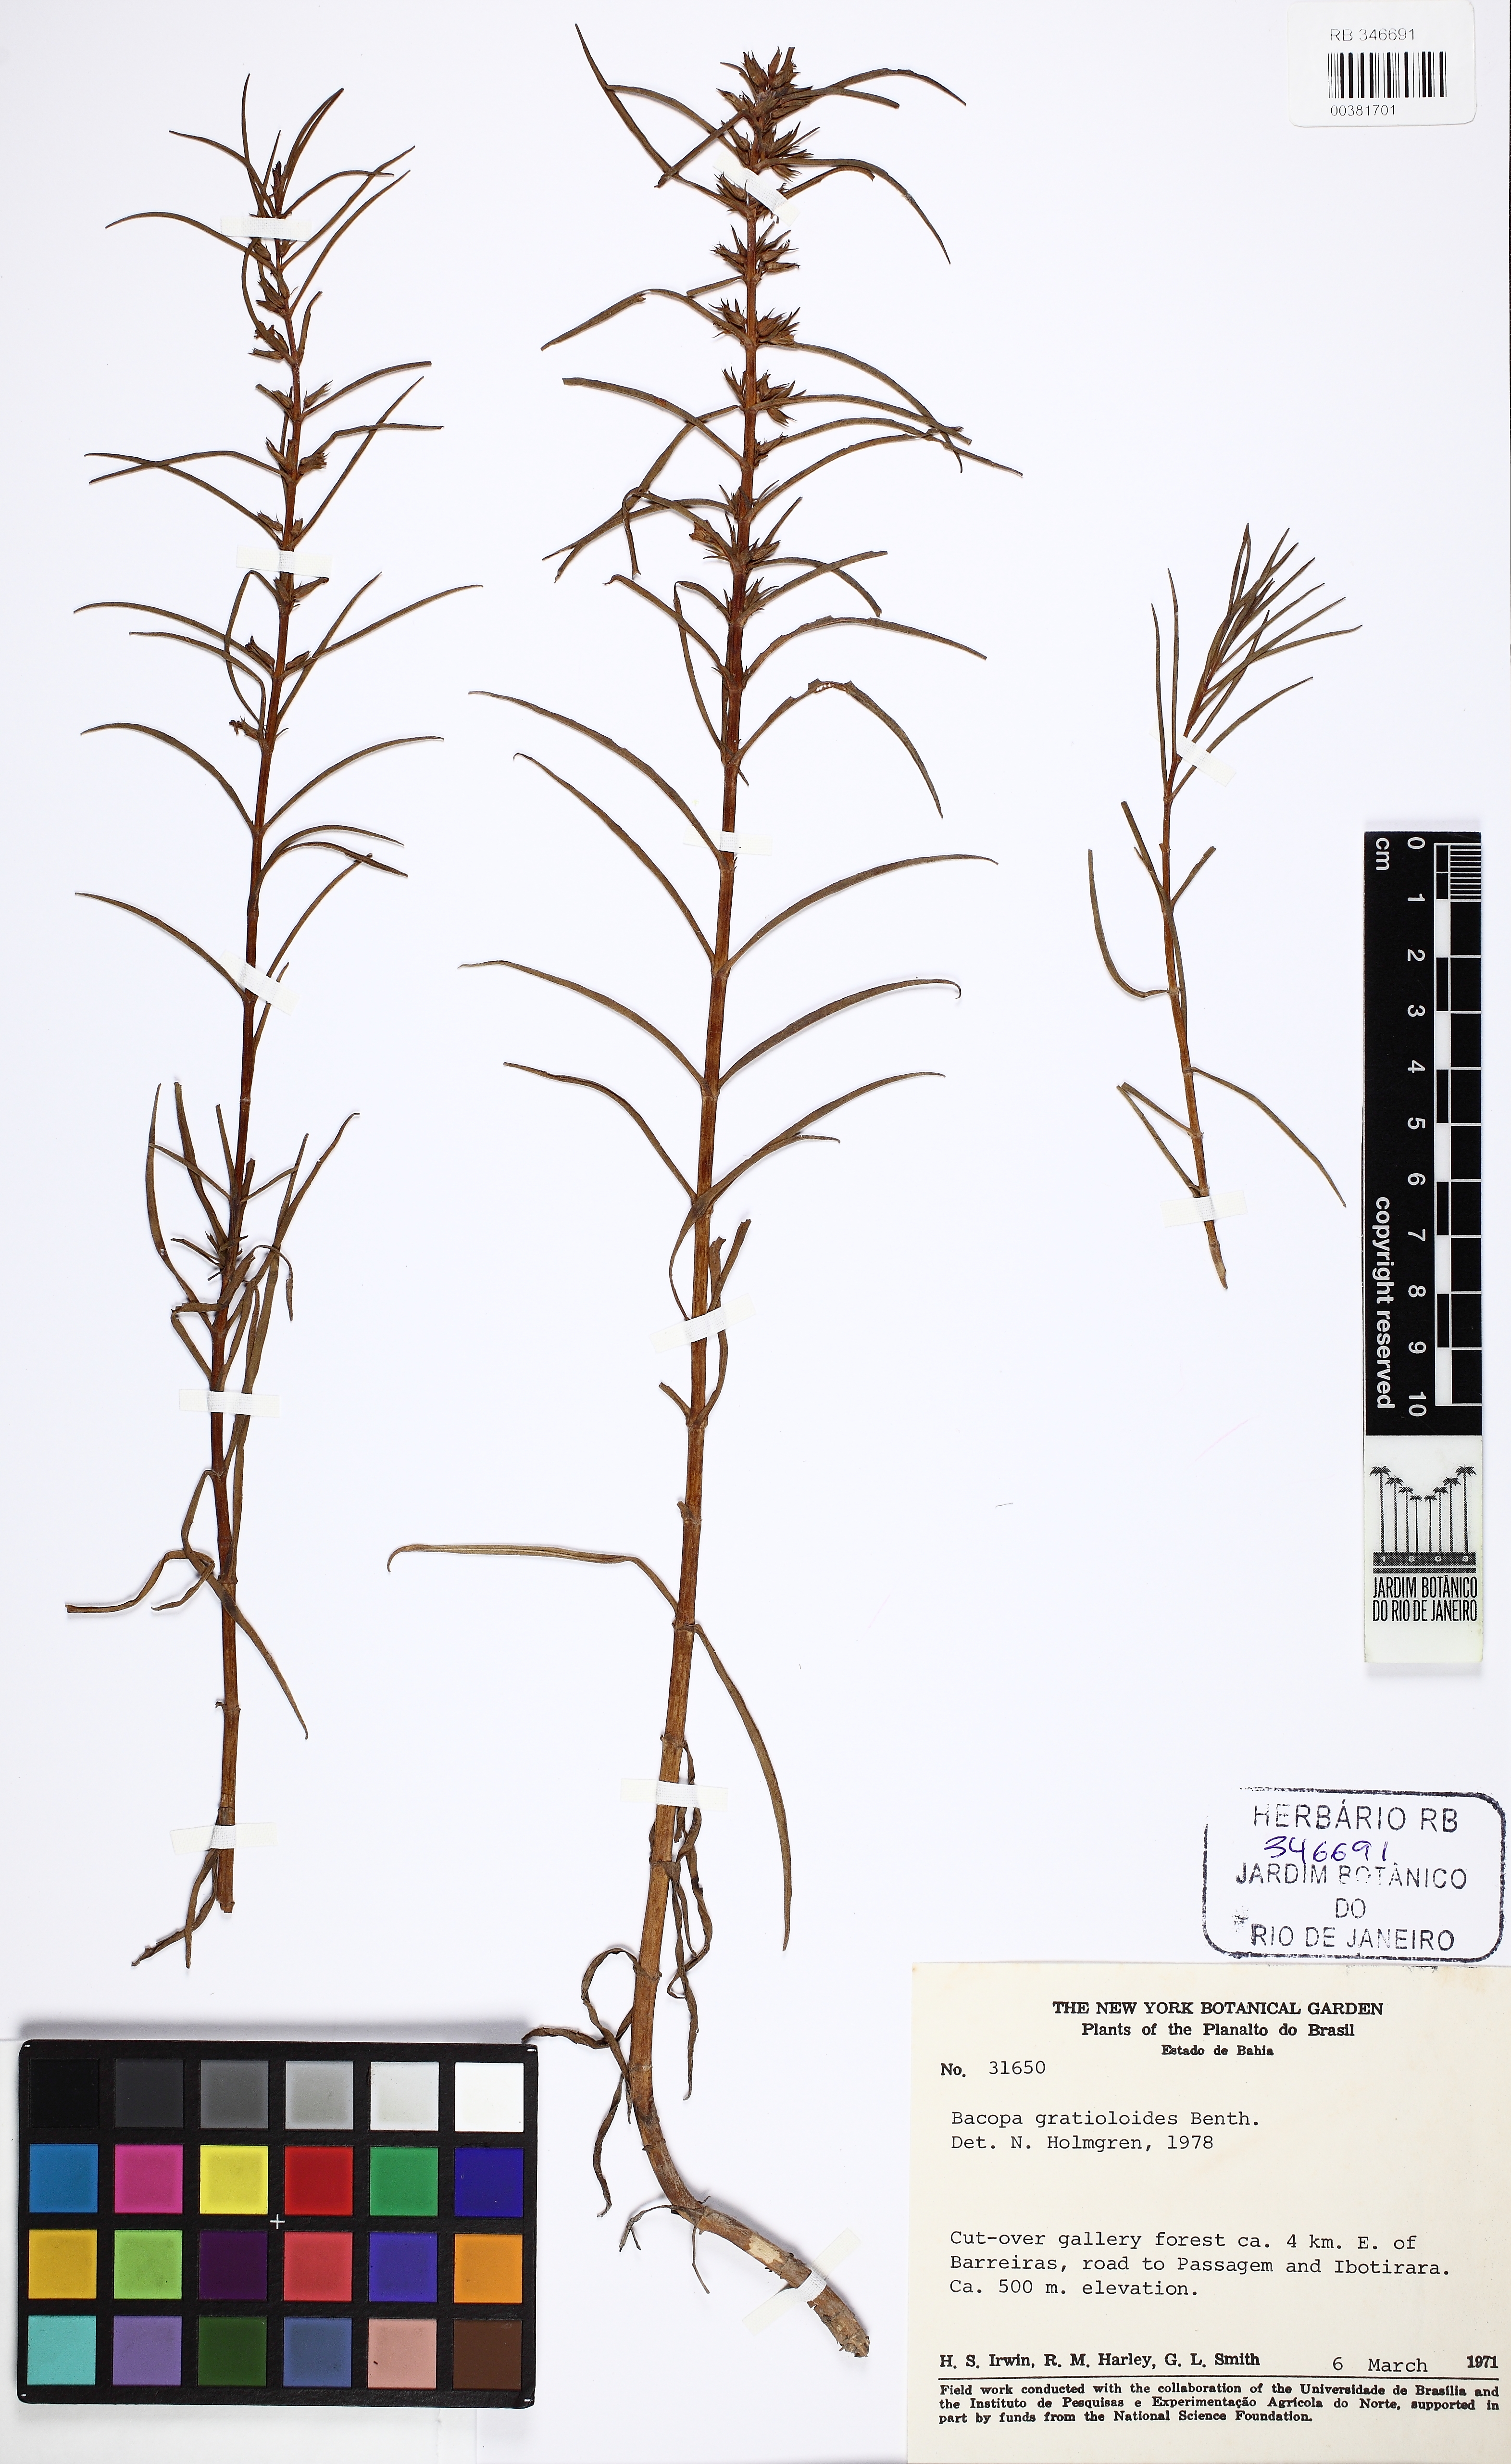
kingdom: Plantae
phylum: Tracheophyta
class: Magnoliopsida
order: Lamiales
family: Plantaginaceae
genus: Bacopa
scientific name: Bacopa gratioloides
